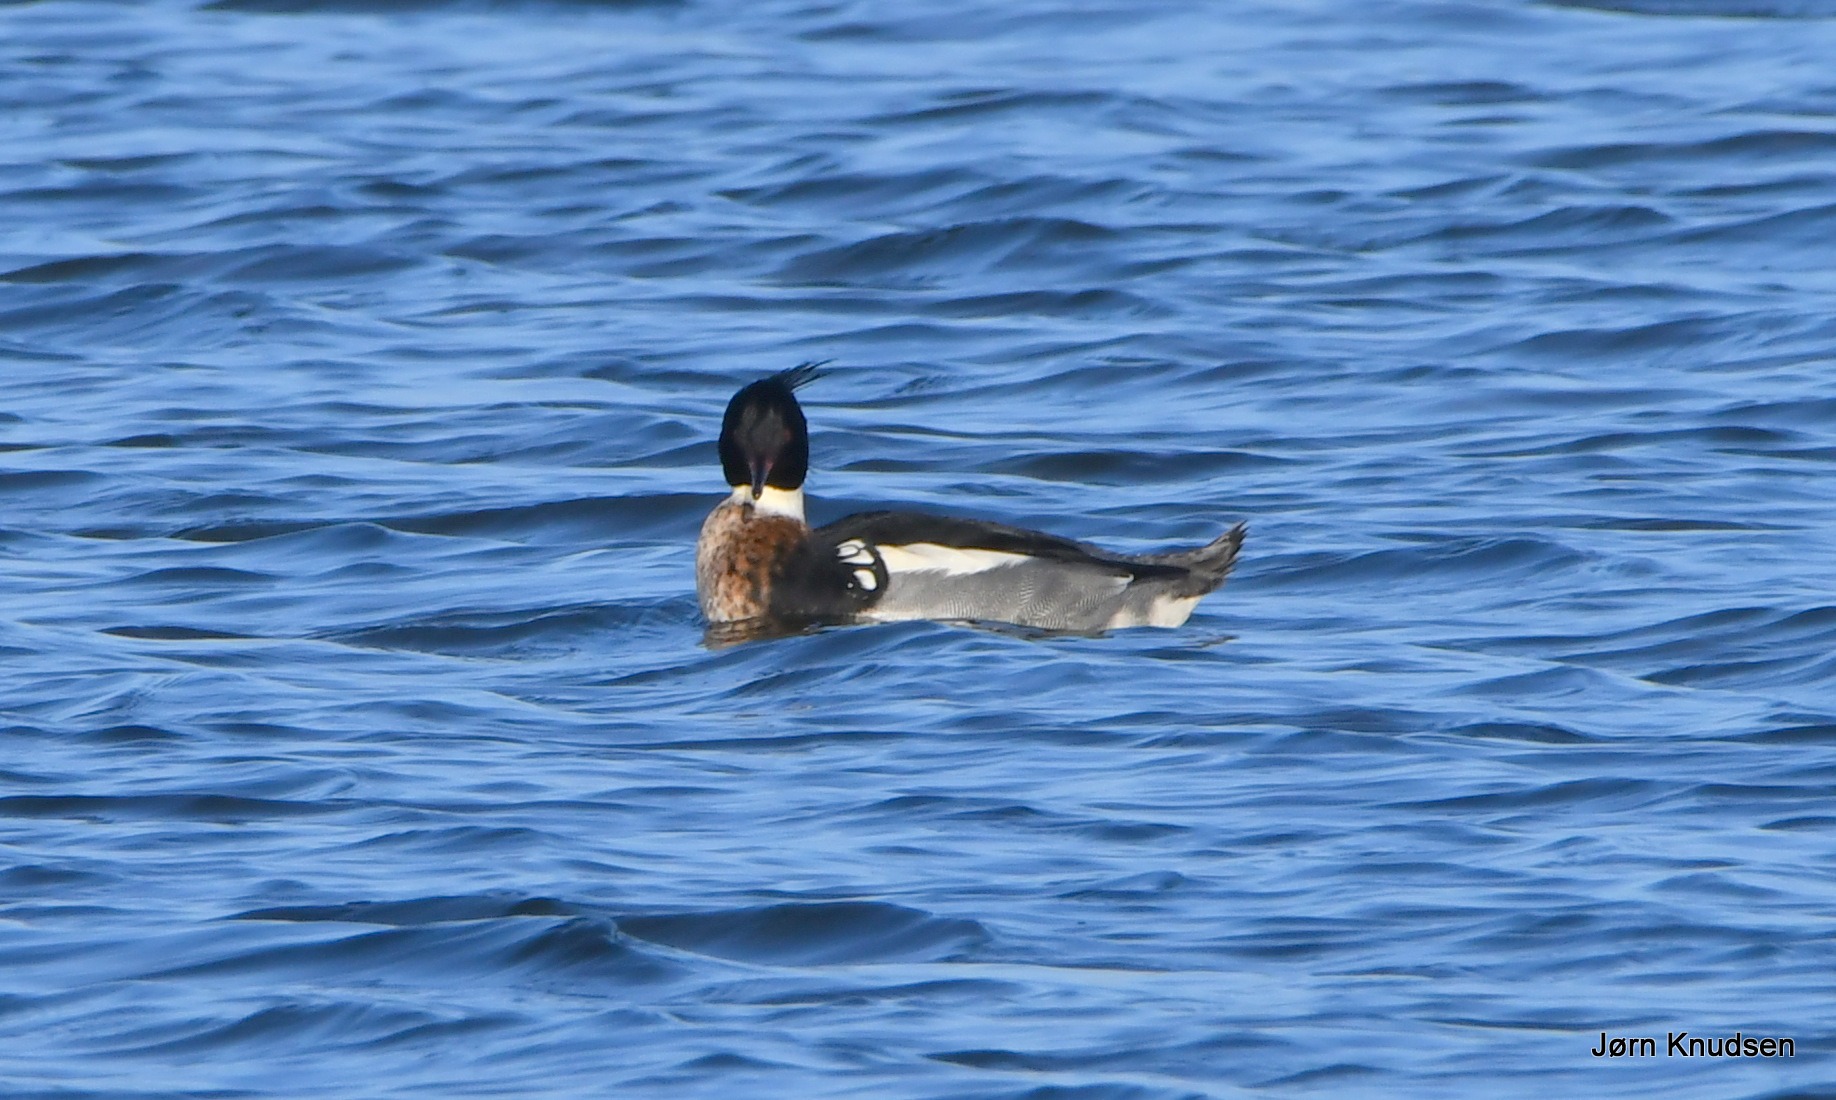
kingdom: Animalia
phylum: Chordata
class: Aves
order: Anseriformes
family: Anatidae
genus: Mergus
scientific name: Mergus serrator
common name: Toppet skallesluger
